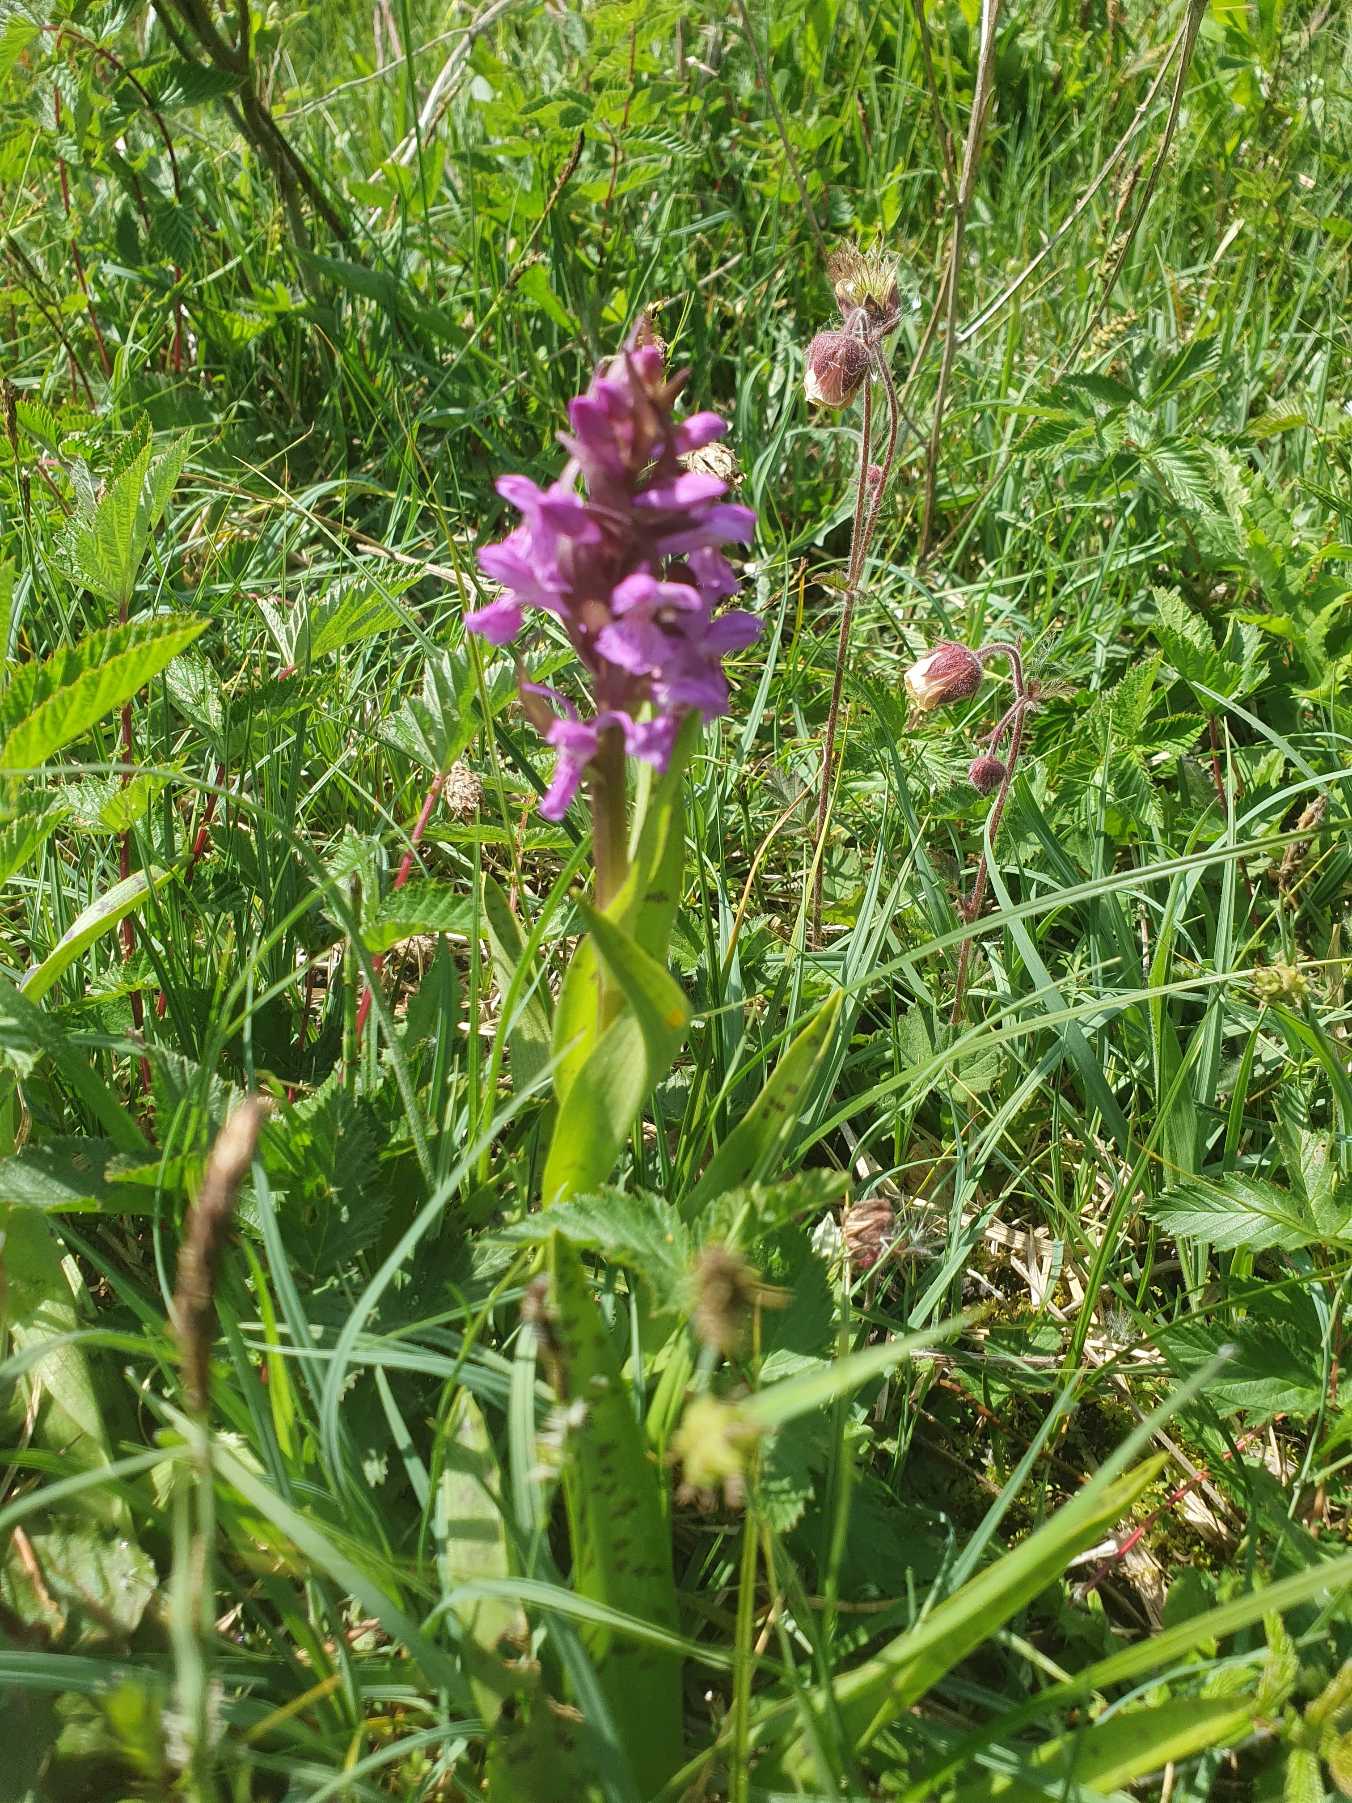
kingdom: Plantae
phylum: Tracheophyta
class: Liliopsida
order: Asparagales
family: Orchidaceae
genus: Dactylorhiza
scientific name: Dactylorhiza majalis
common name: Maj-gøgeurt
